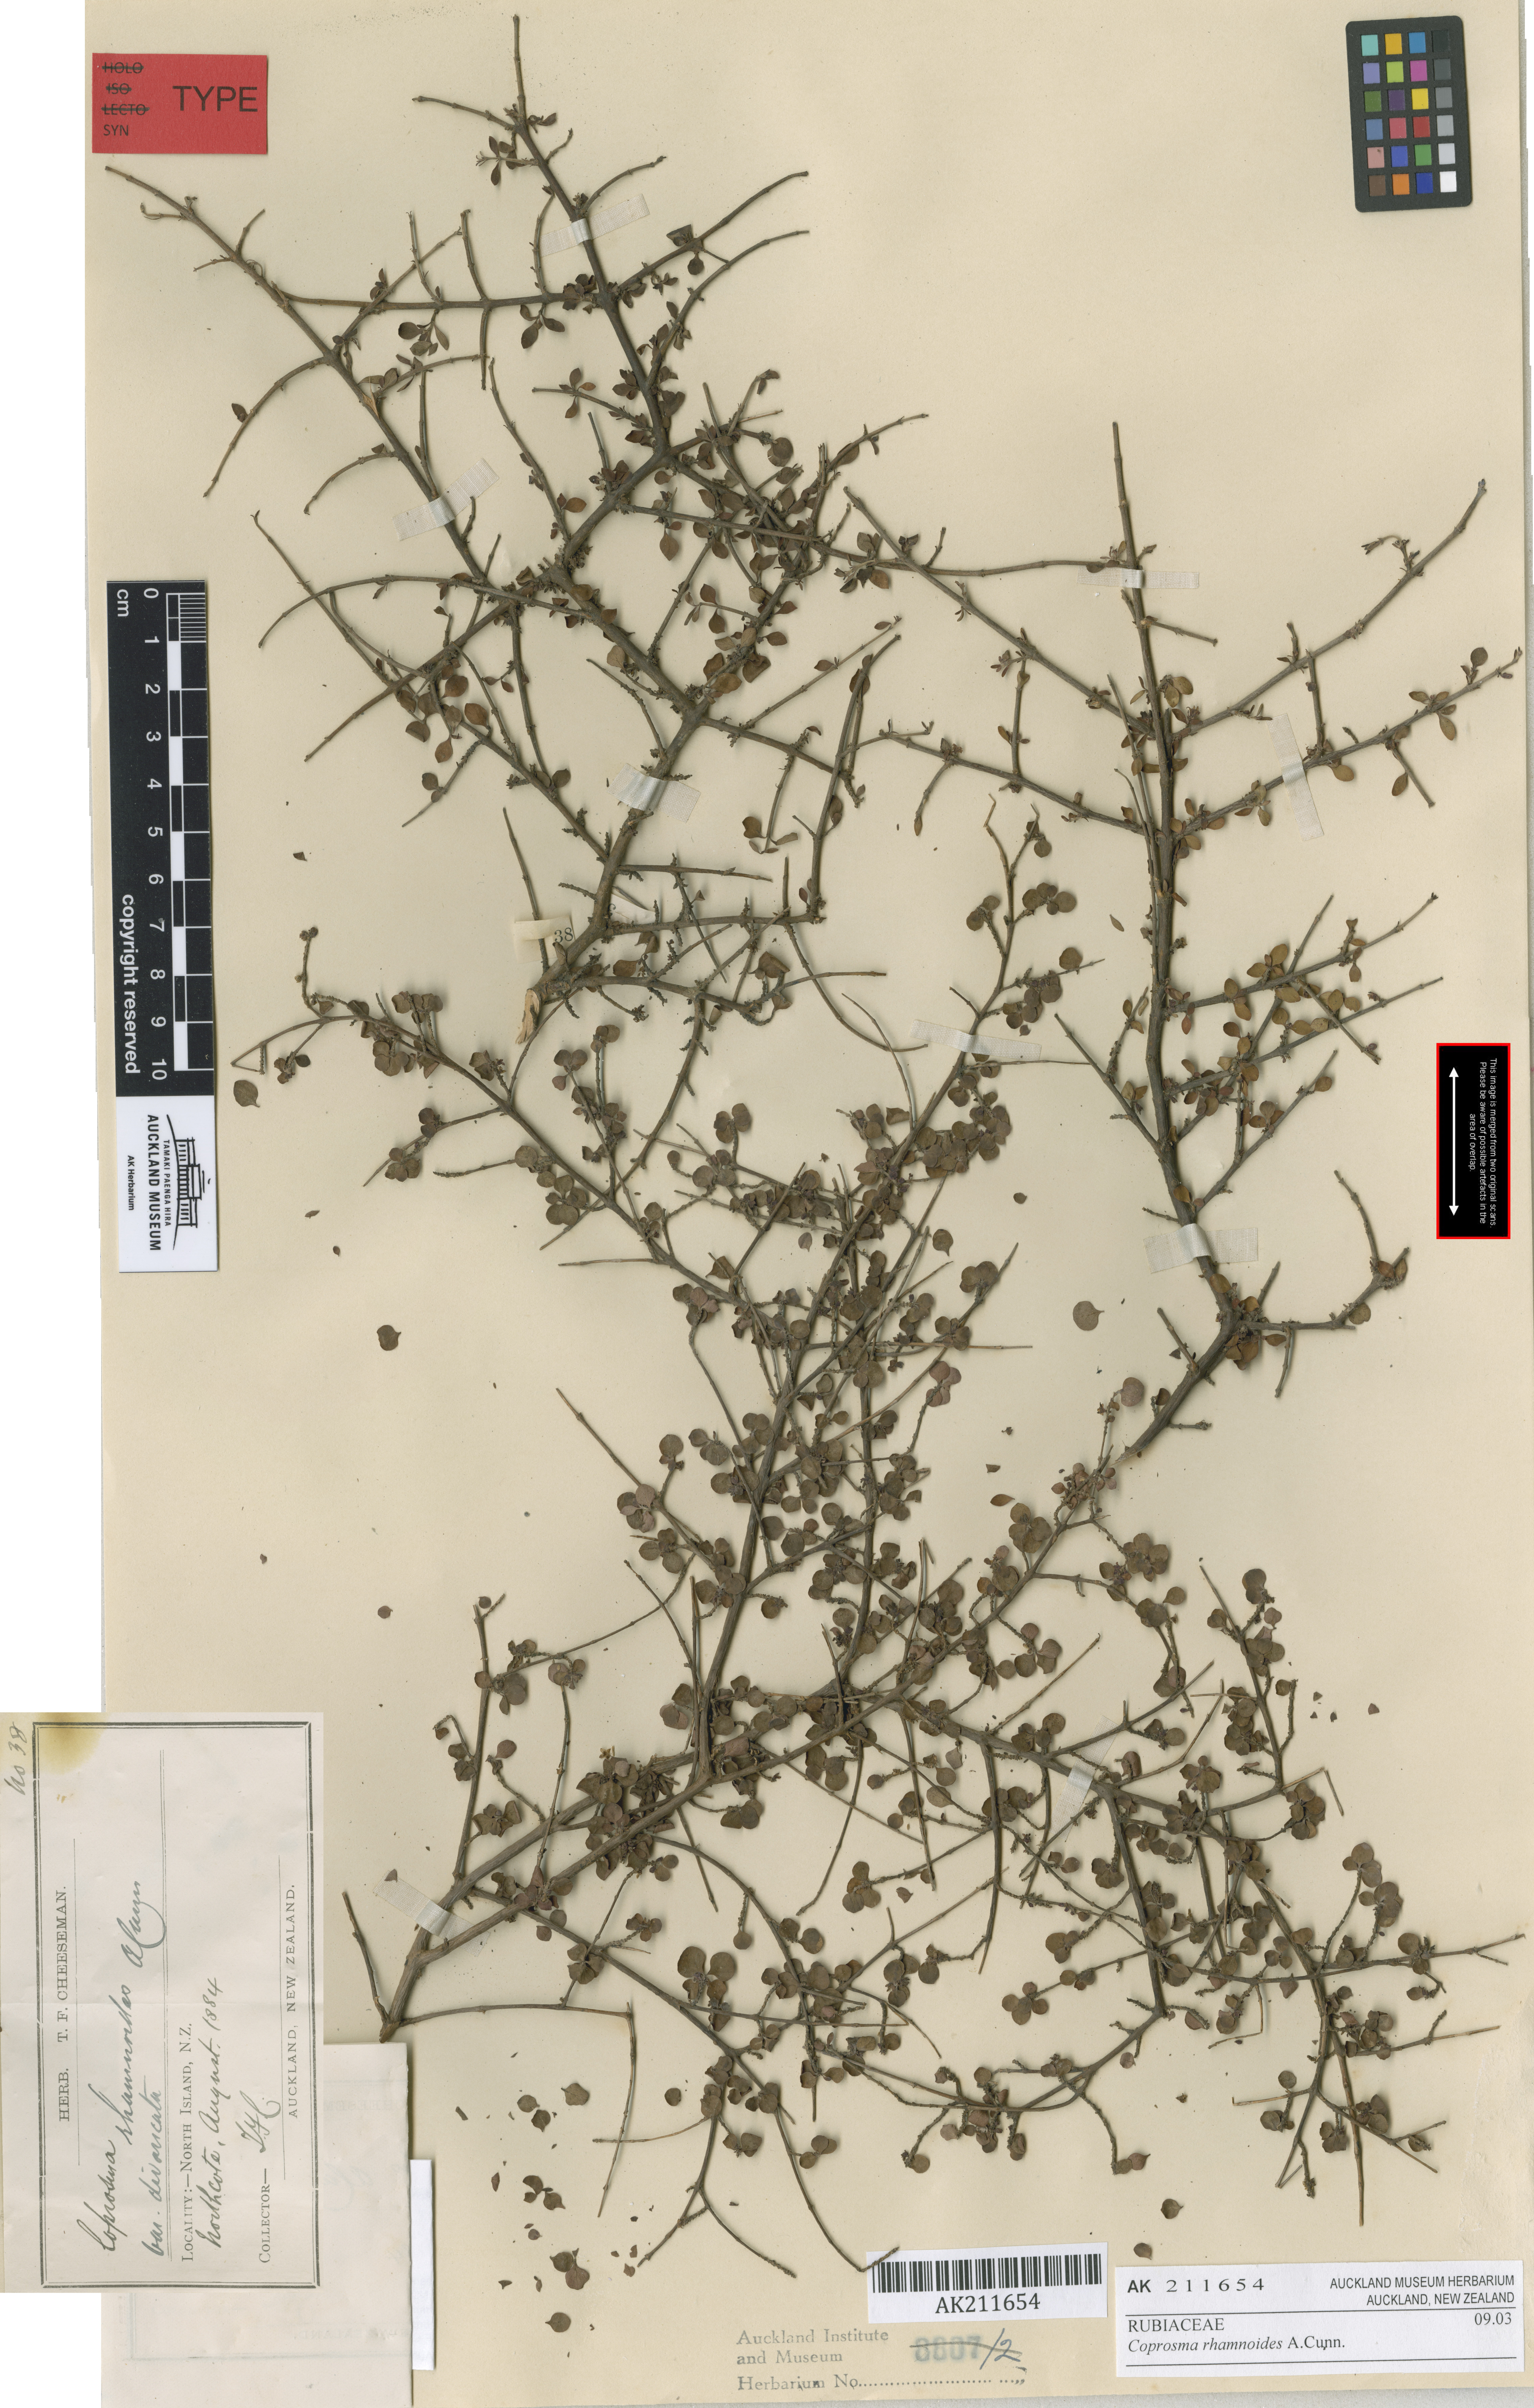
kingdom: Plantae
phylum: Tracheophyta
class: Magnoliopsida
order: Gentianales
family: Rubiaceae
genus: Coprosma
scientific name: Coprosma rhamnoides
